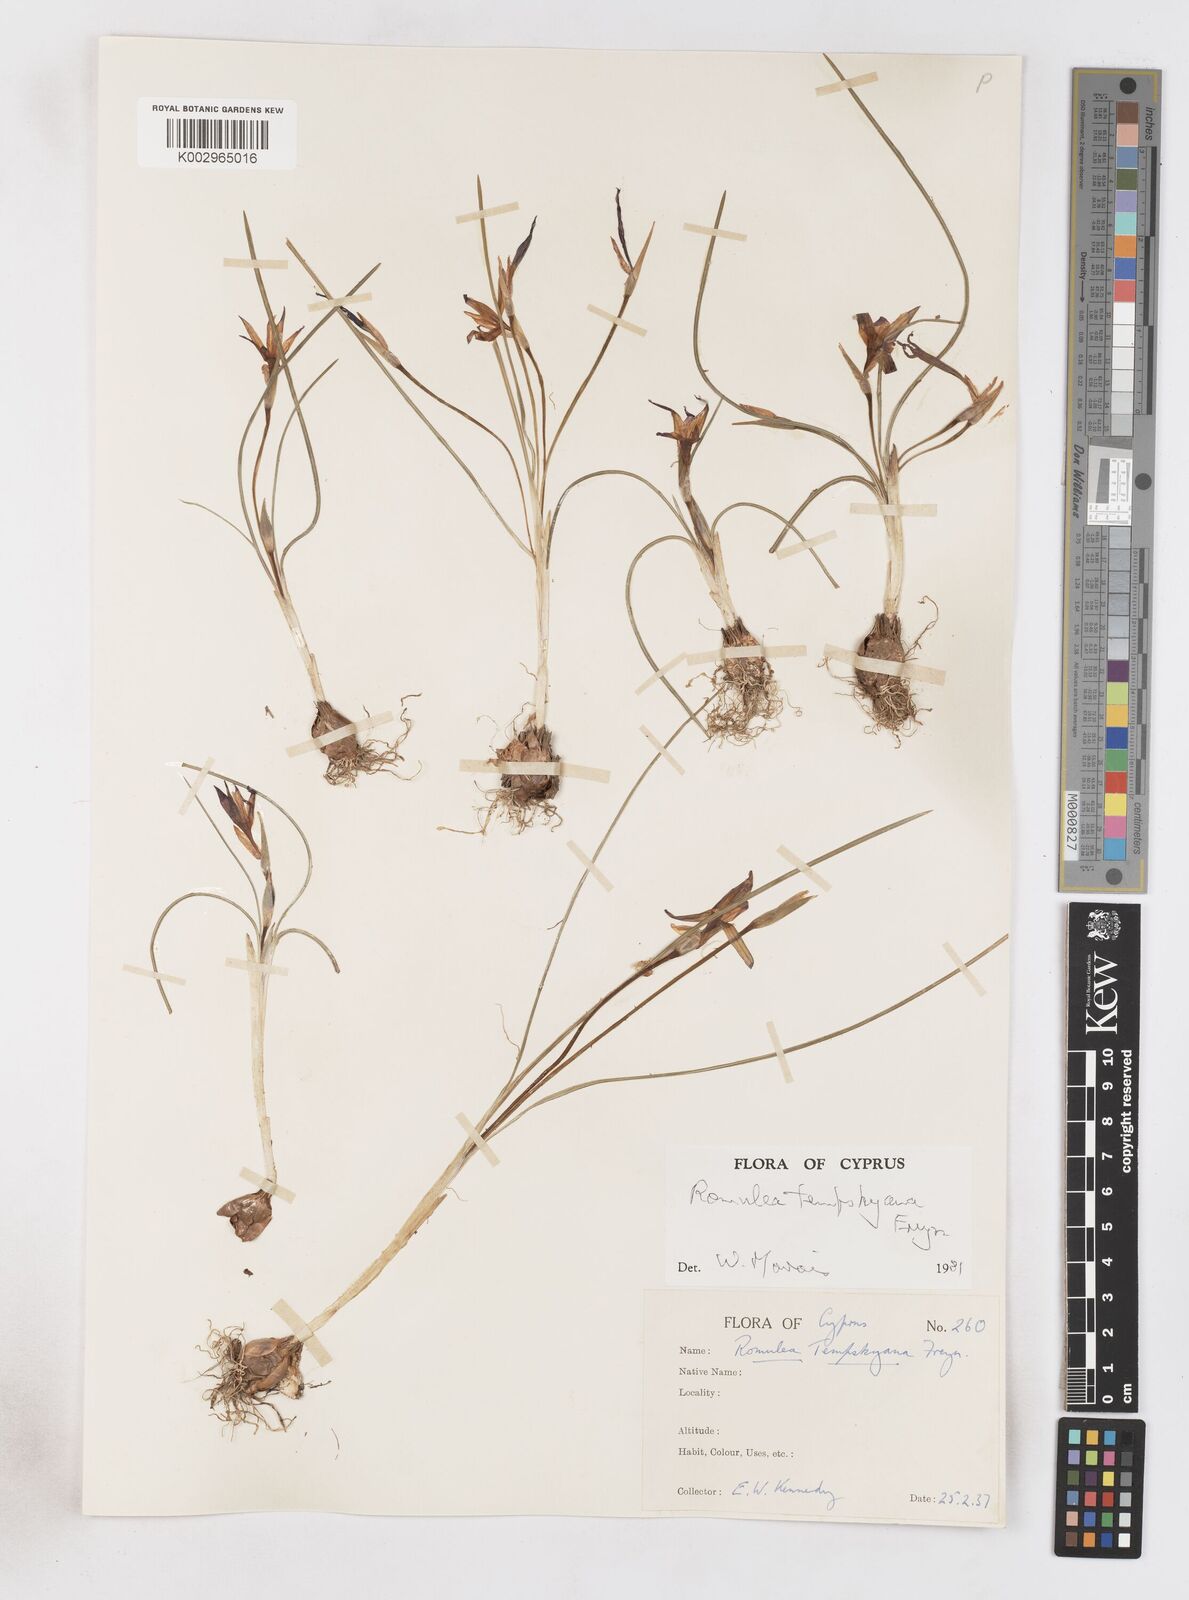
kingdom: Plantae
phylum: Tracheophyta
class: Liliopsida
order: Asparagales
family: Iridaceae
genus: Romulea
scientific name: Romulea tempskyana
